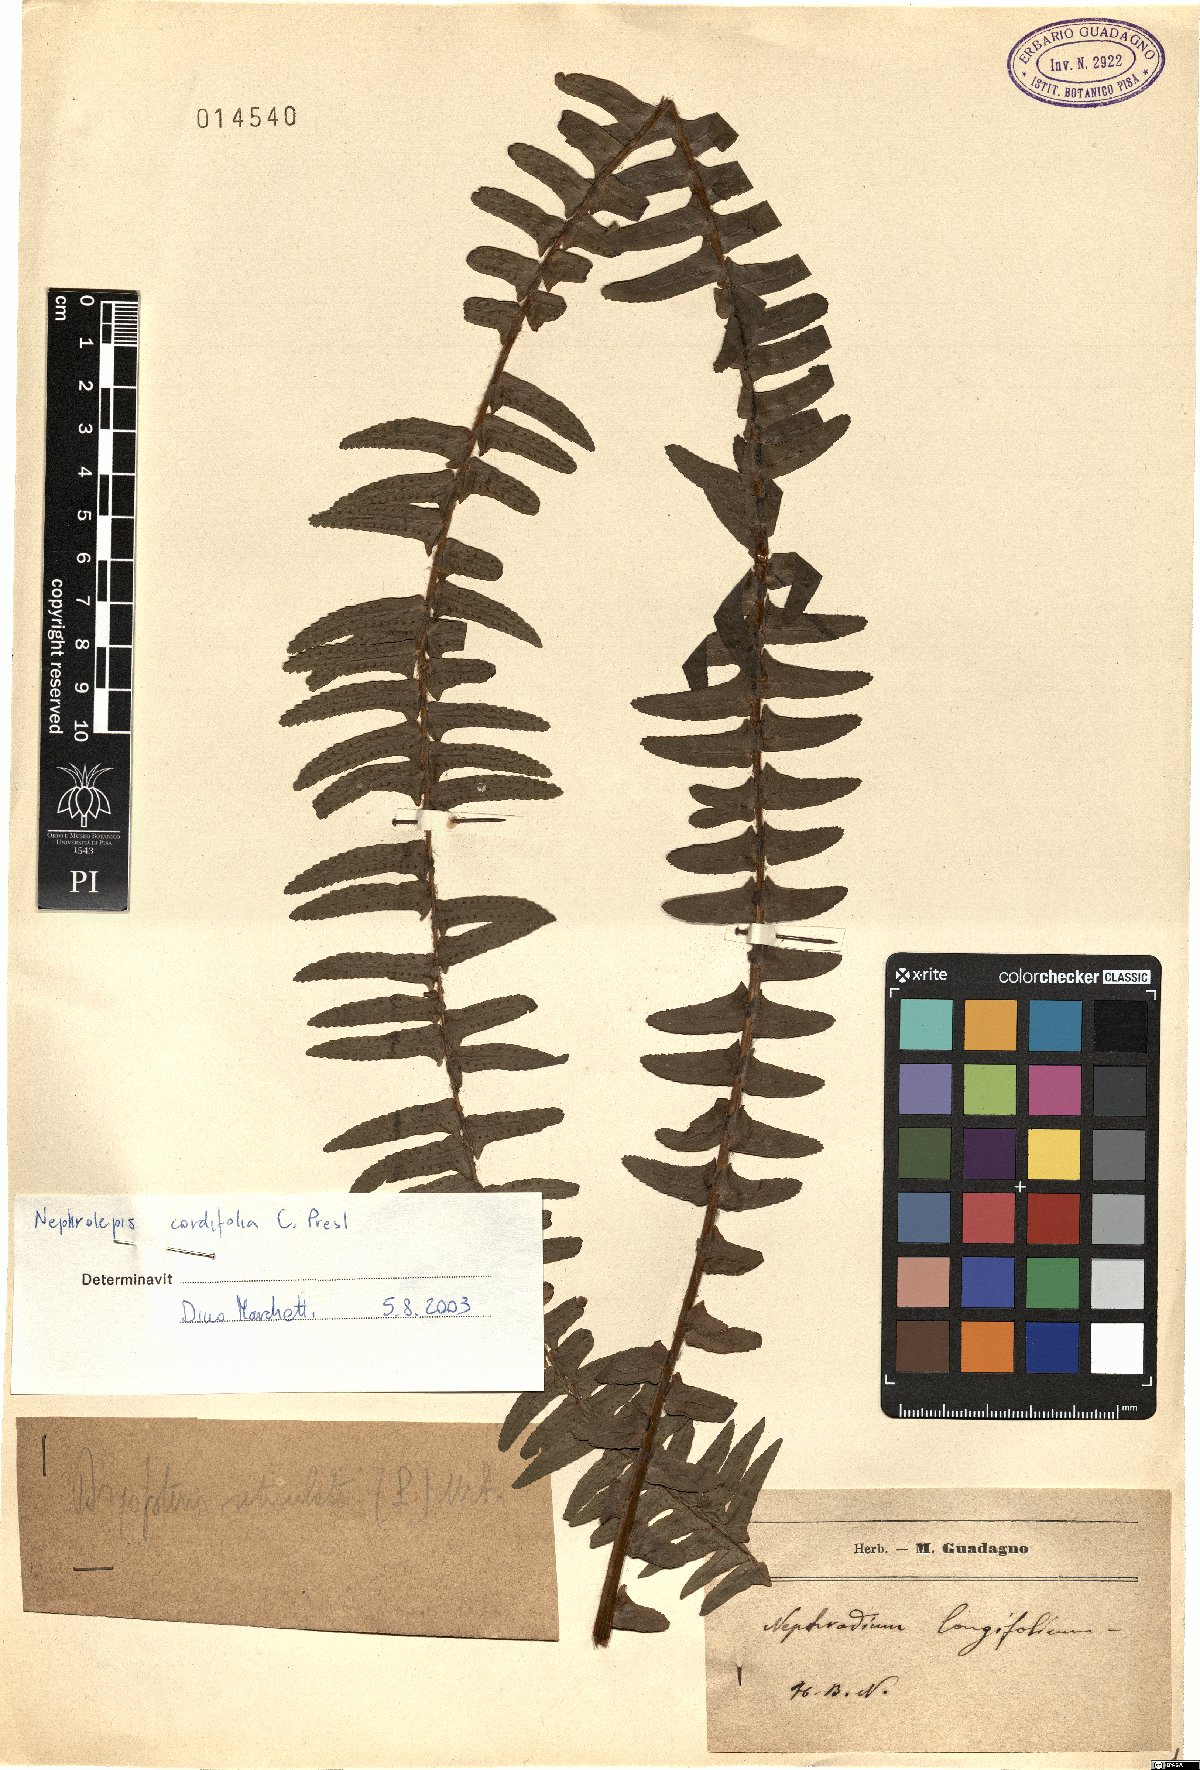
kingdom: Plantae
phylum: Tracheophyta
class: Polypodiopsida
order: Polypodiales
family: Nephrolepidaceae
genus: Nephrolepis
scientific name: Nephrolepis cordifolia
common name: Narrow swordfern
